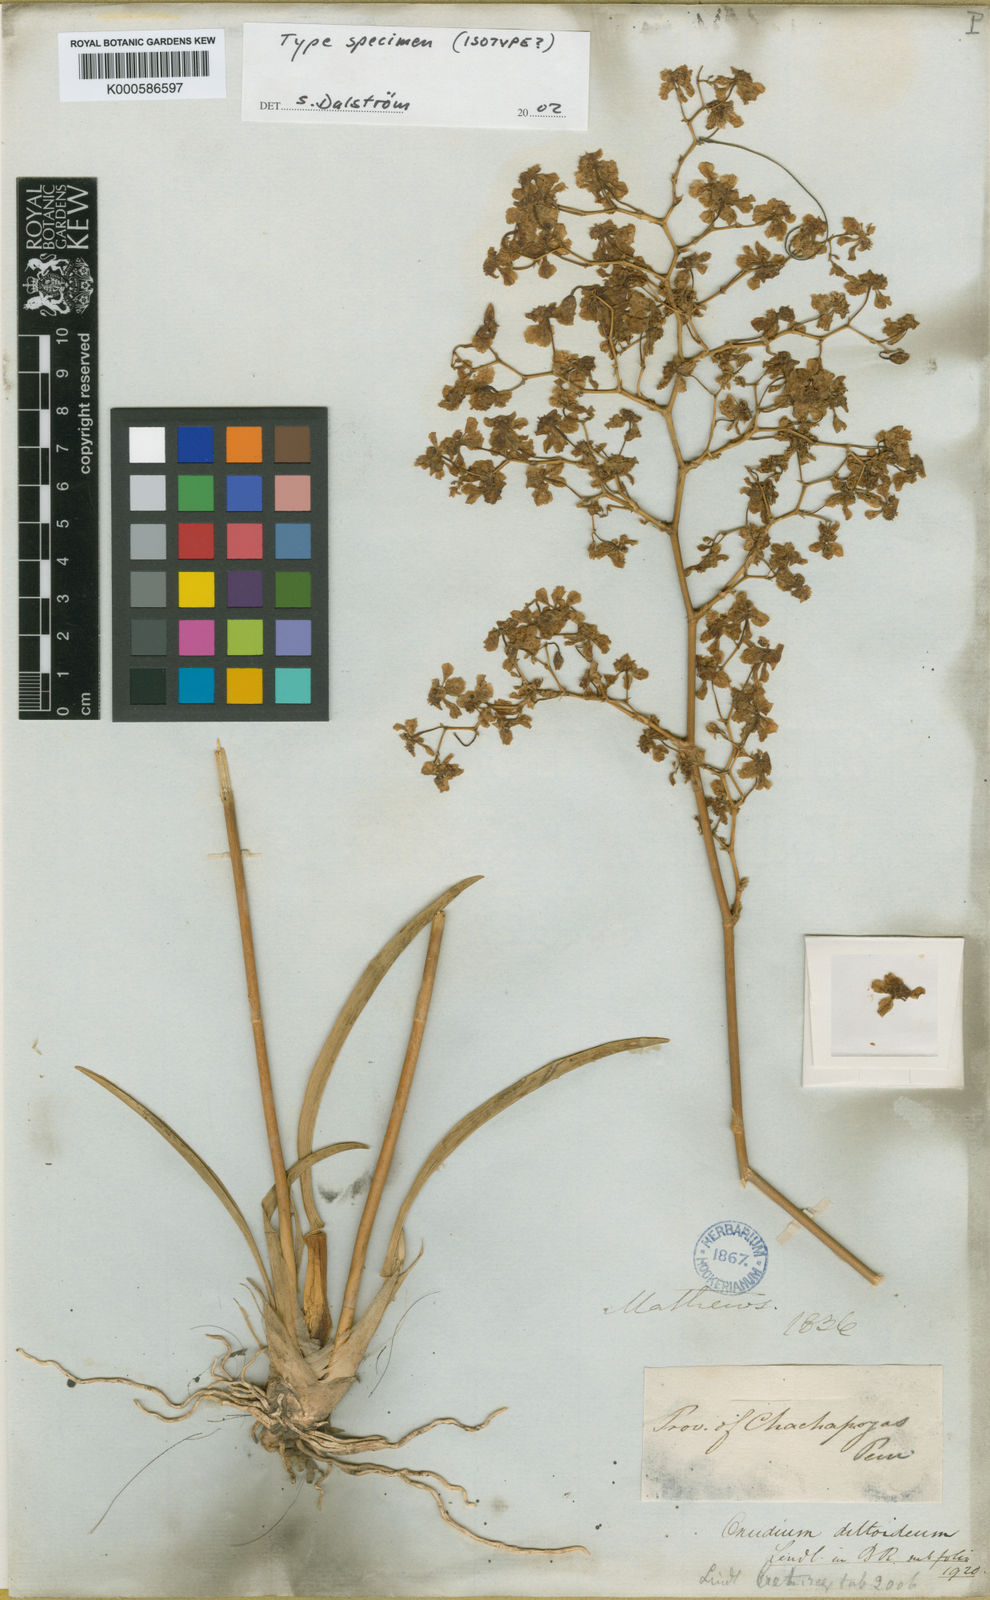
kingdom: Plantae
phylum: Tracheophyta
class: Liliopsida
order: Asparagales
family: Orchidaceae
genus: Oncidium
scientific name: Oncidium deltoideum
